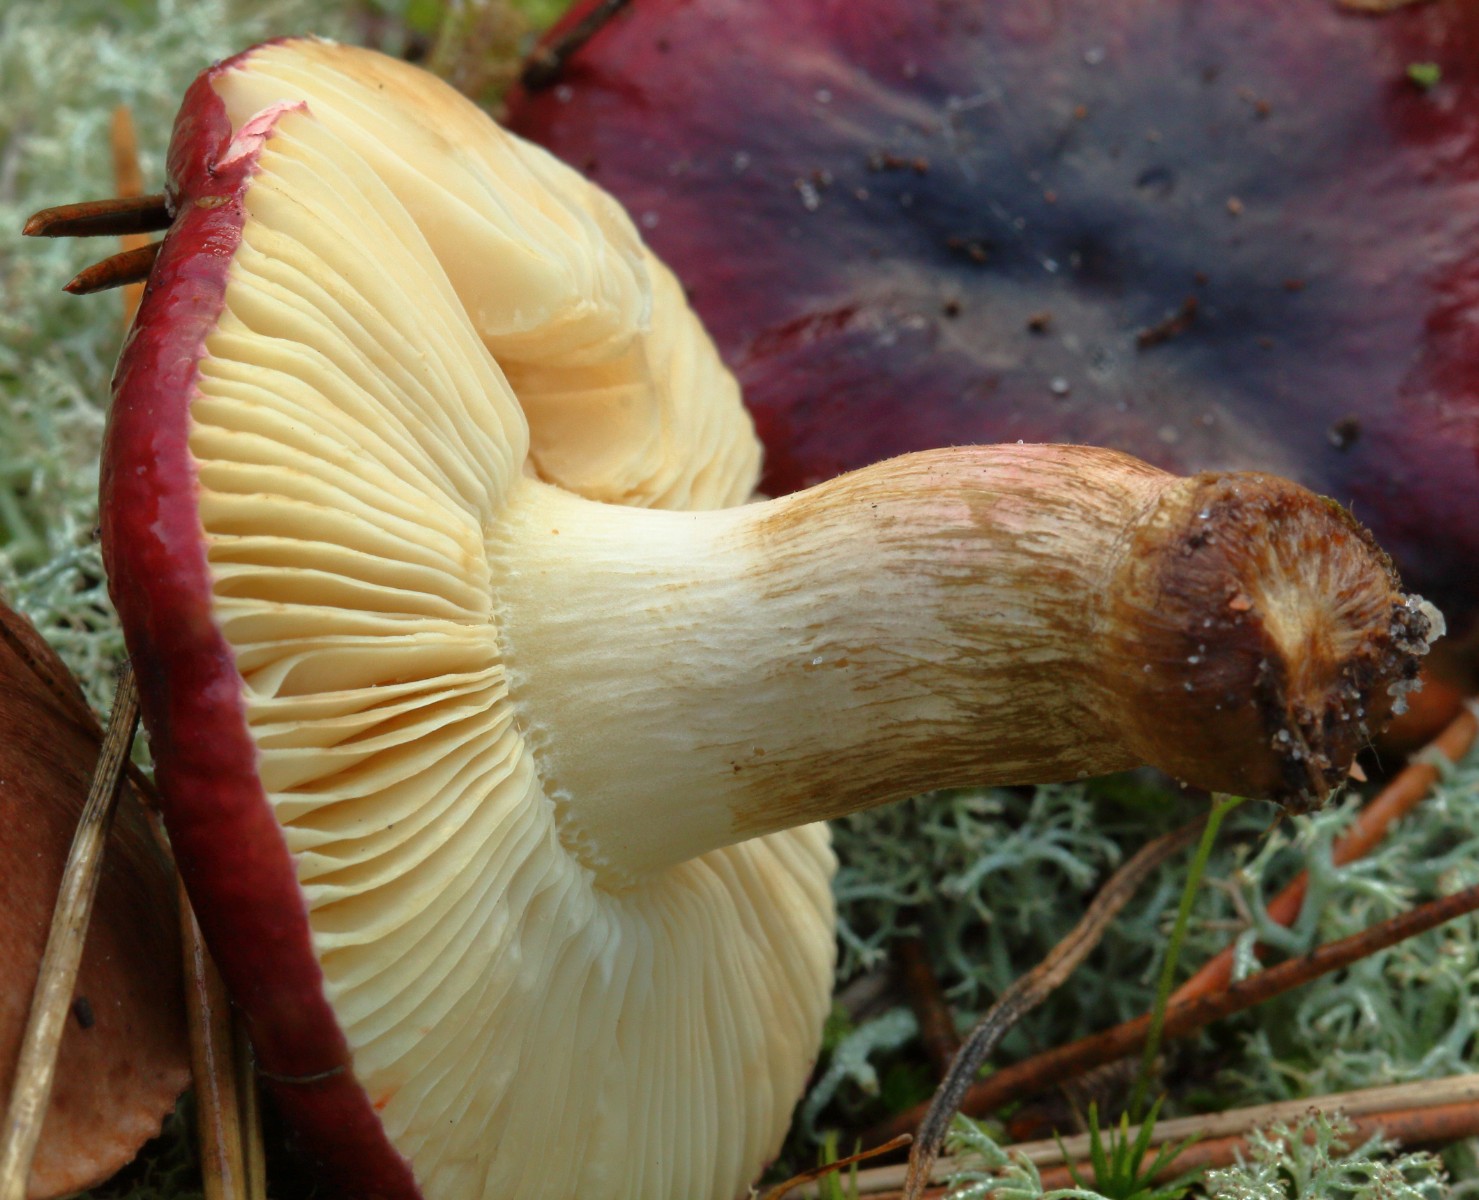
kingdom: Fungi
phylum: Basidiomycota
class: Agaricomycetes
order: Russulales
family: Russulaceae
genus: Russula
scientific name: Russula xerampelina
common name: hummer-skørhat
